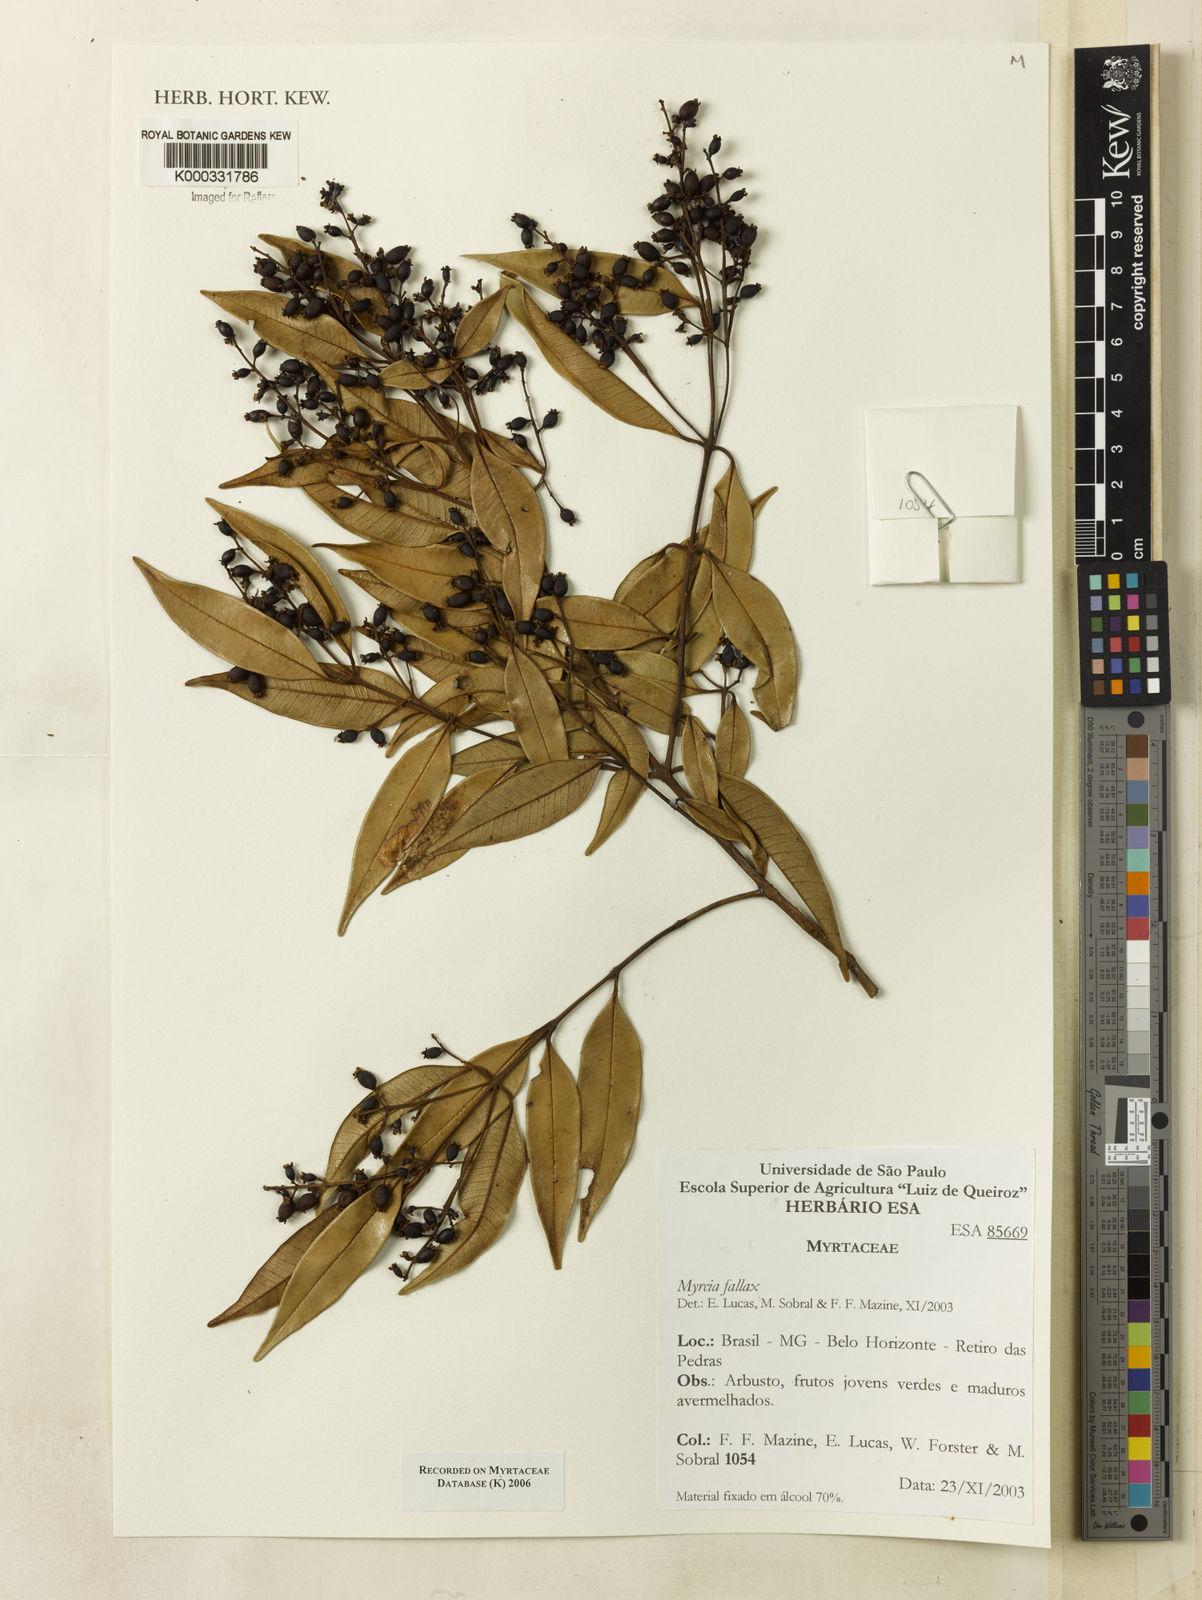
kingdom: Plantae
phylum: Tracheophyta
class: Magnoliopsida
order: Myrtales
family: Myrtaceae
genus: Myrcia
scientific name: Myrcia splendens
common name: Surinam cherry
